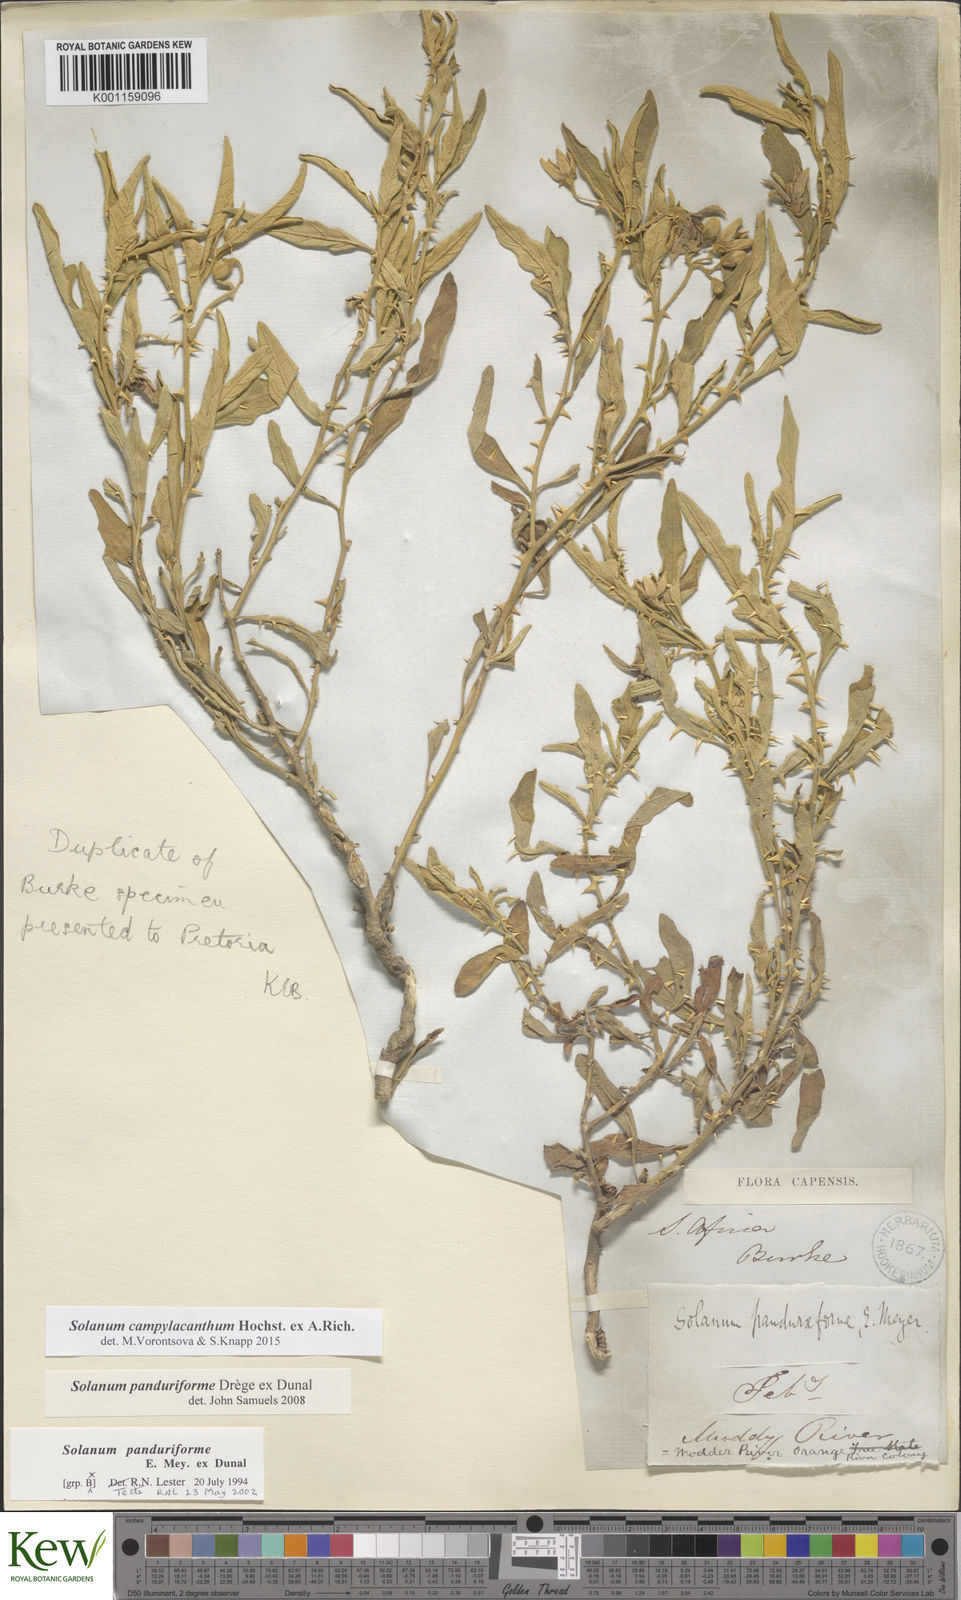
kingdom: Plantae
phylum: Tracheophyta
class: Magnoliopsida
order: Solanales
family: Solanaceae
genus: Solanum
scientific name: Solanum campylacanthum
